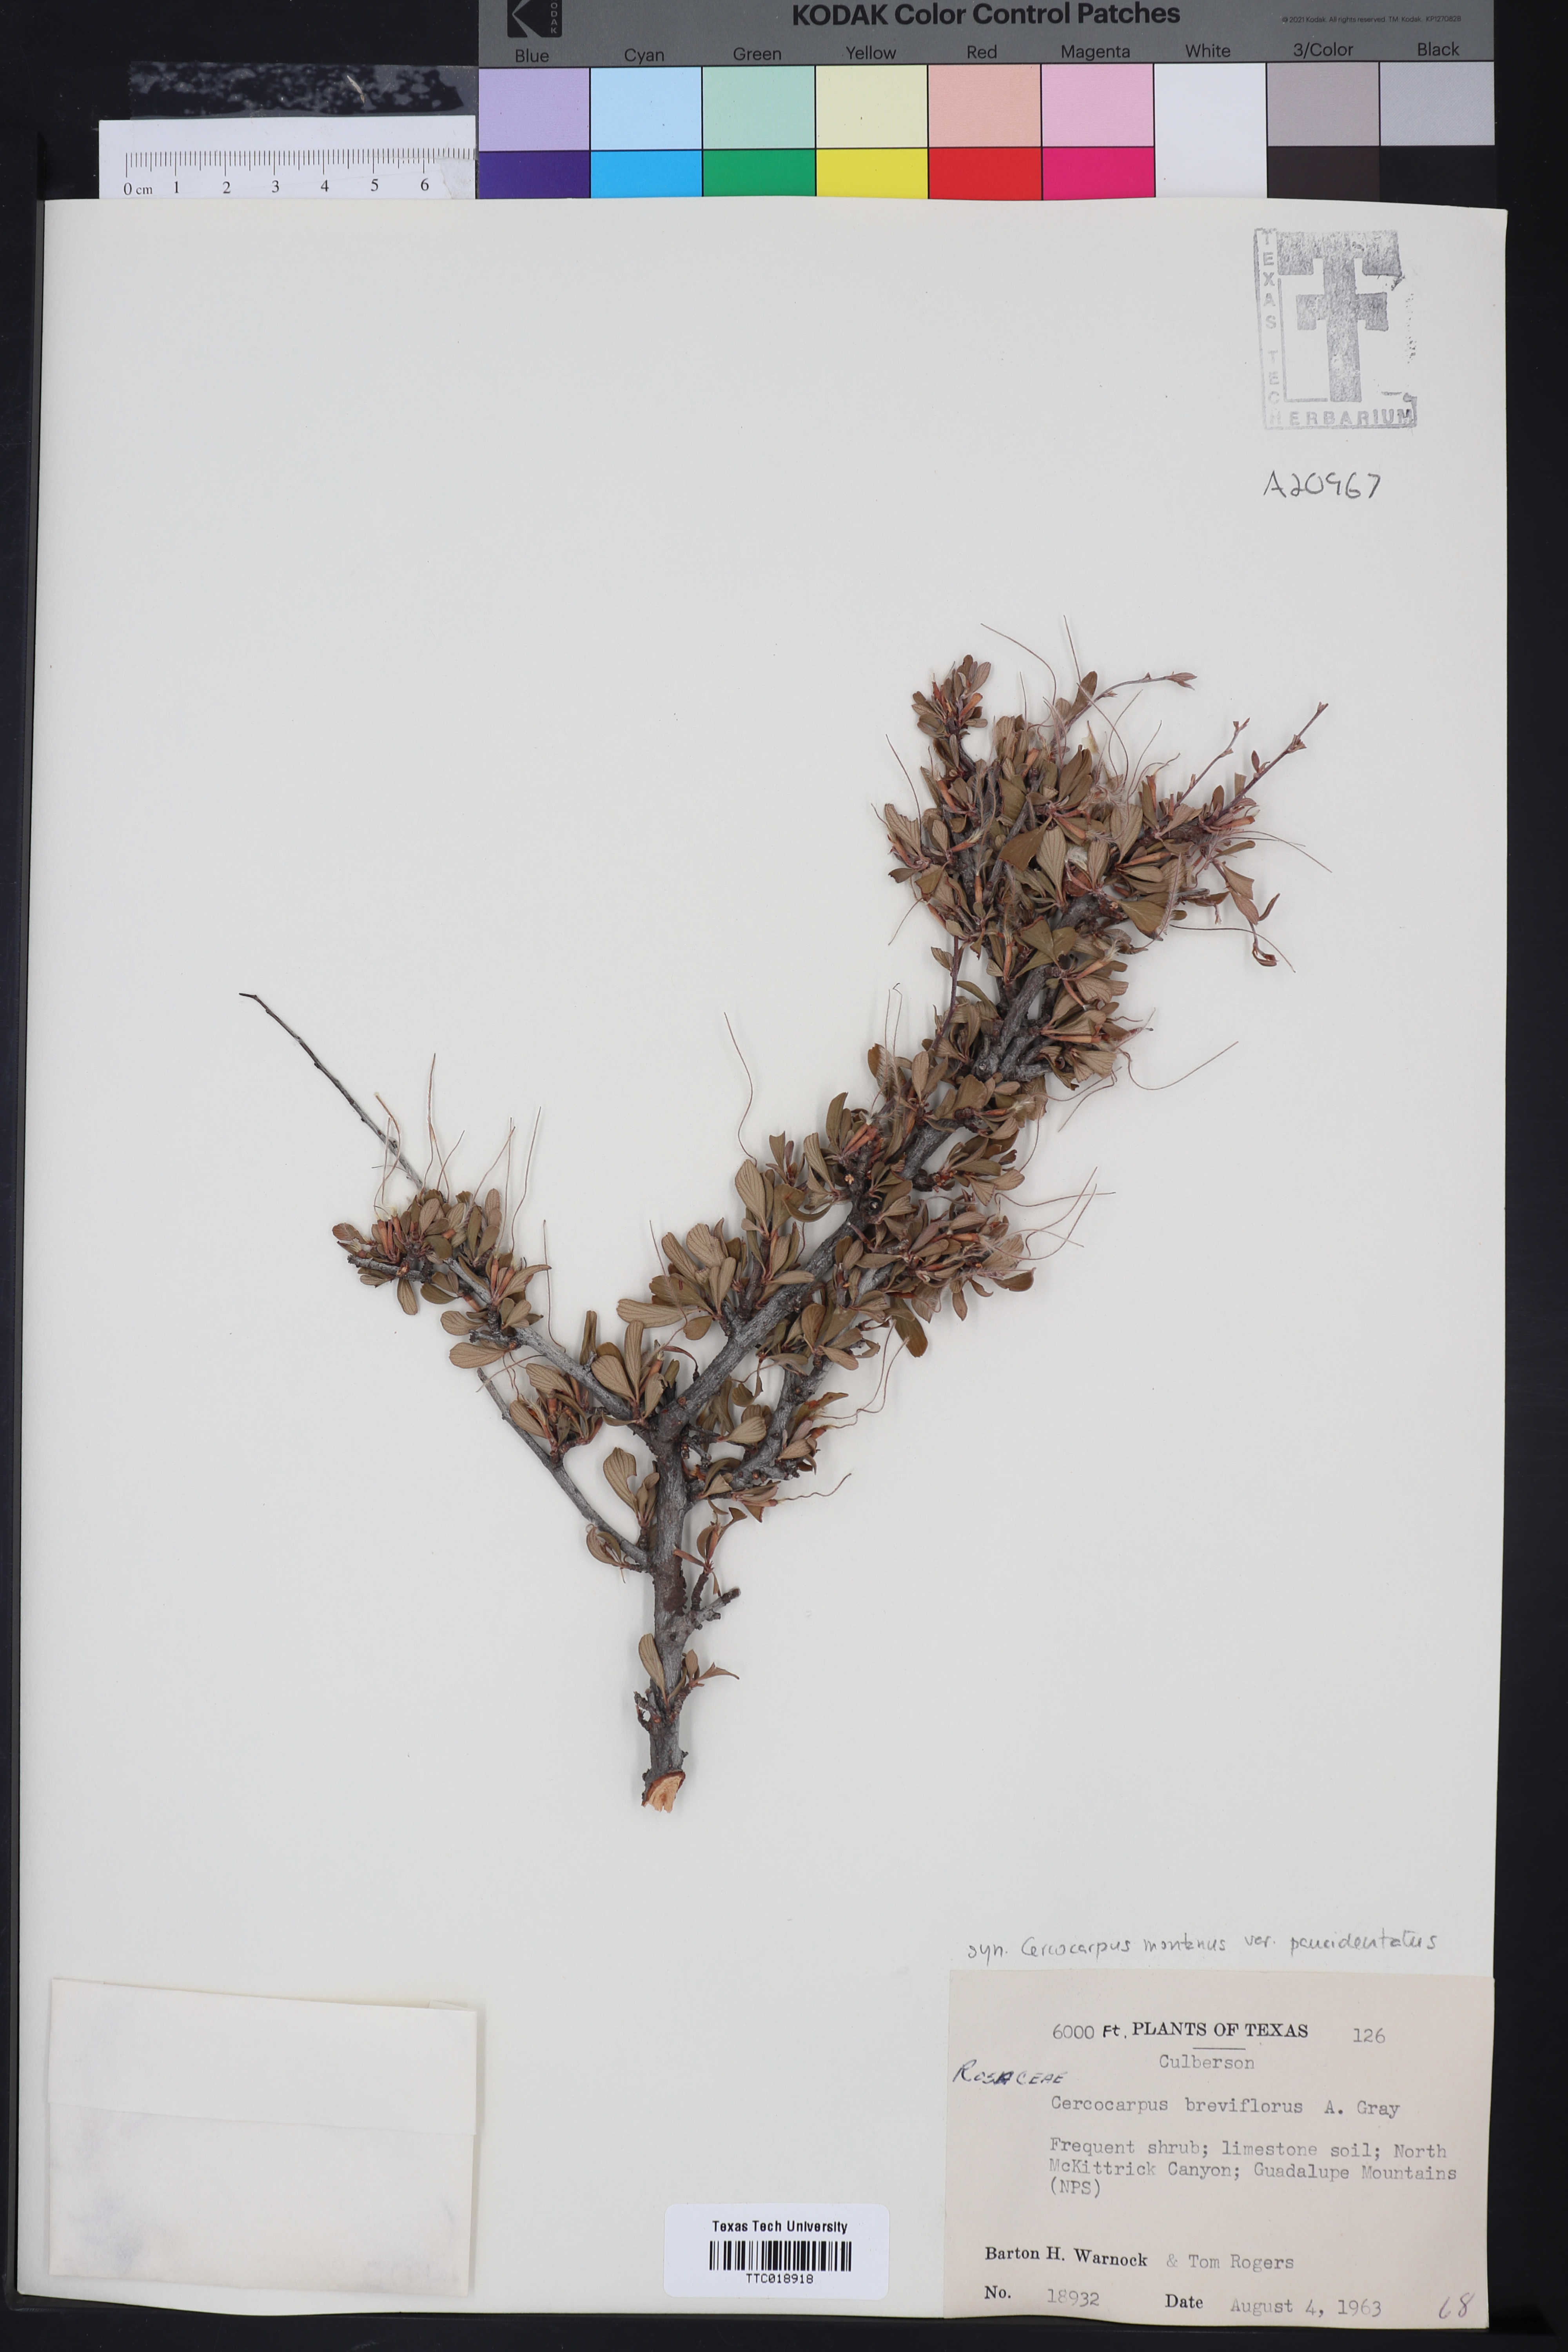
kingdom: Plantae
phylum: Tracheophyta
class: Magnoliopsida
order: Rosales
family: Rosaceae
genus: Cercocarpus
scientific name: Cercocarpus breviflorus
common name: Wright's mountain-mahogany
